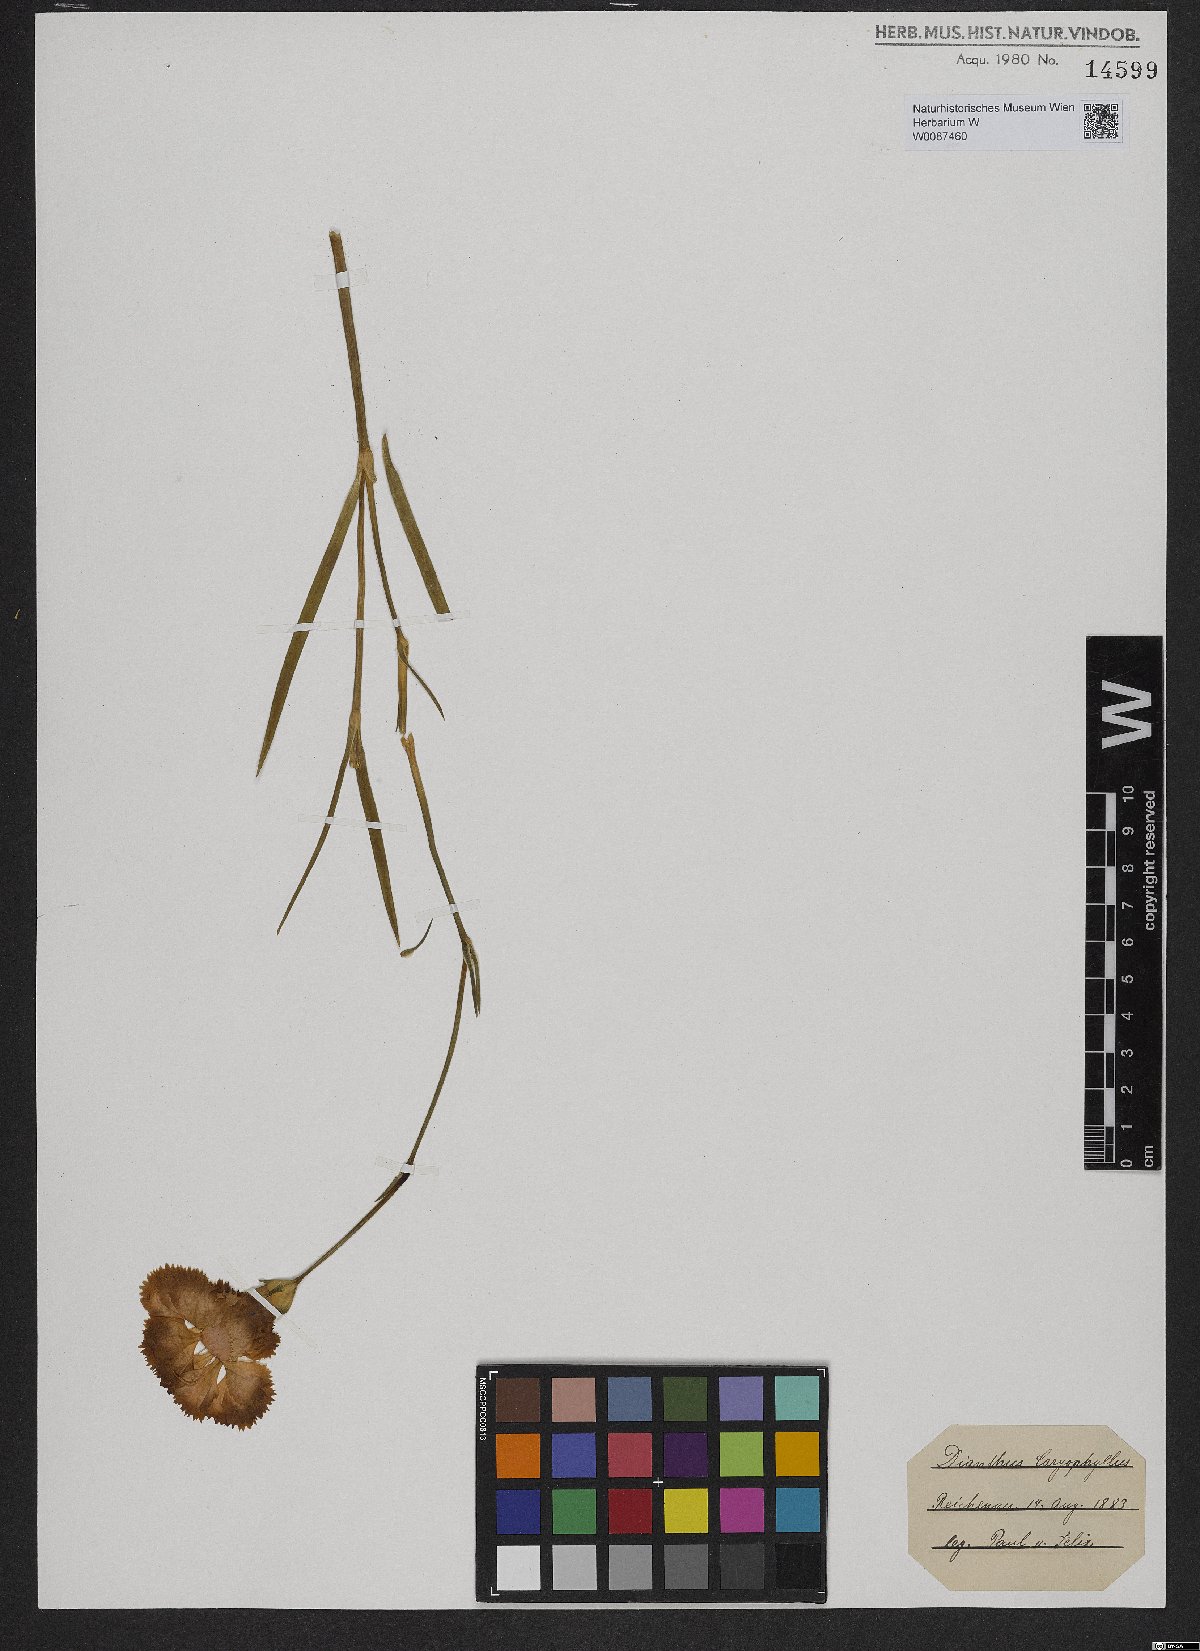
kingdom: Plantae
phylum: Tracheophyta
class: Magnoliopsida
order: Caryophyllales
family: Caryophyllaceae
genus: Dianthus
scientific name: Dianthus
